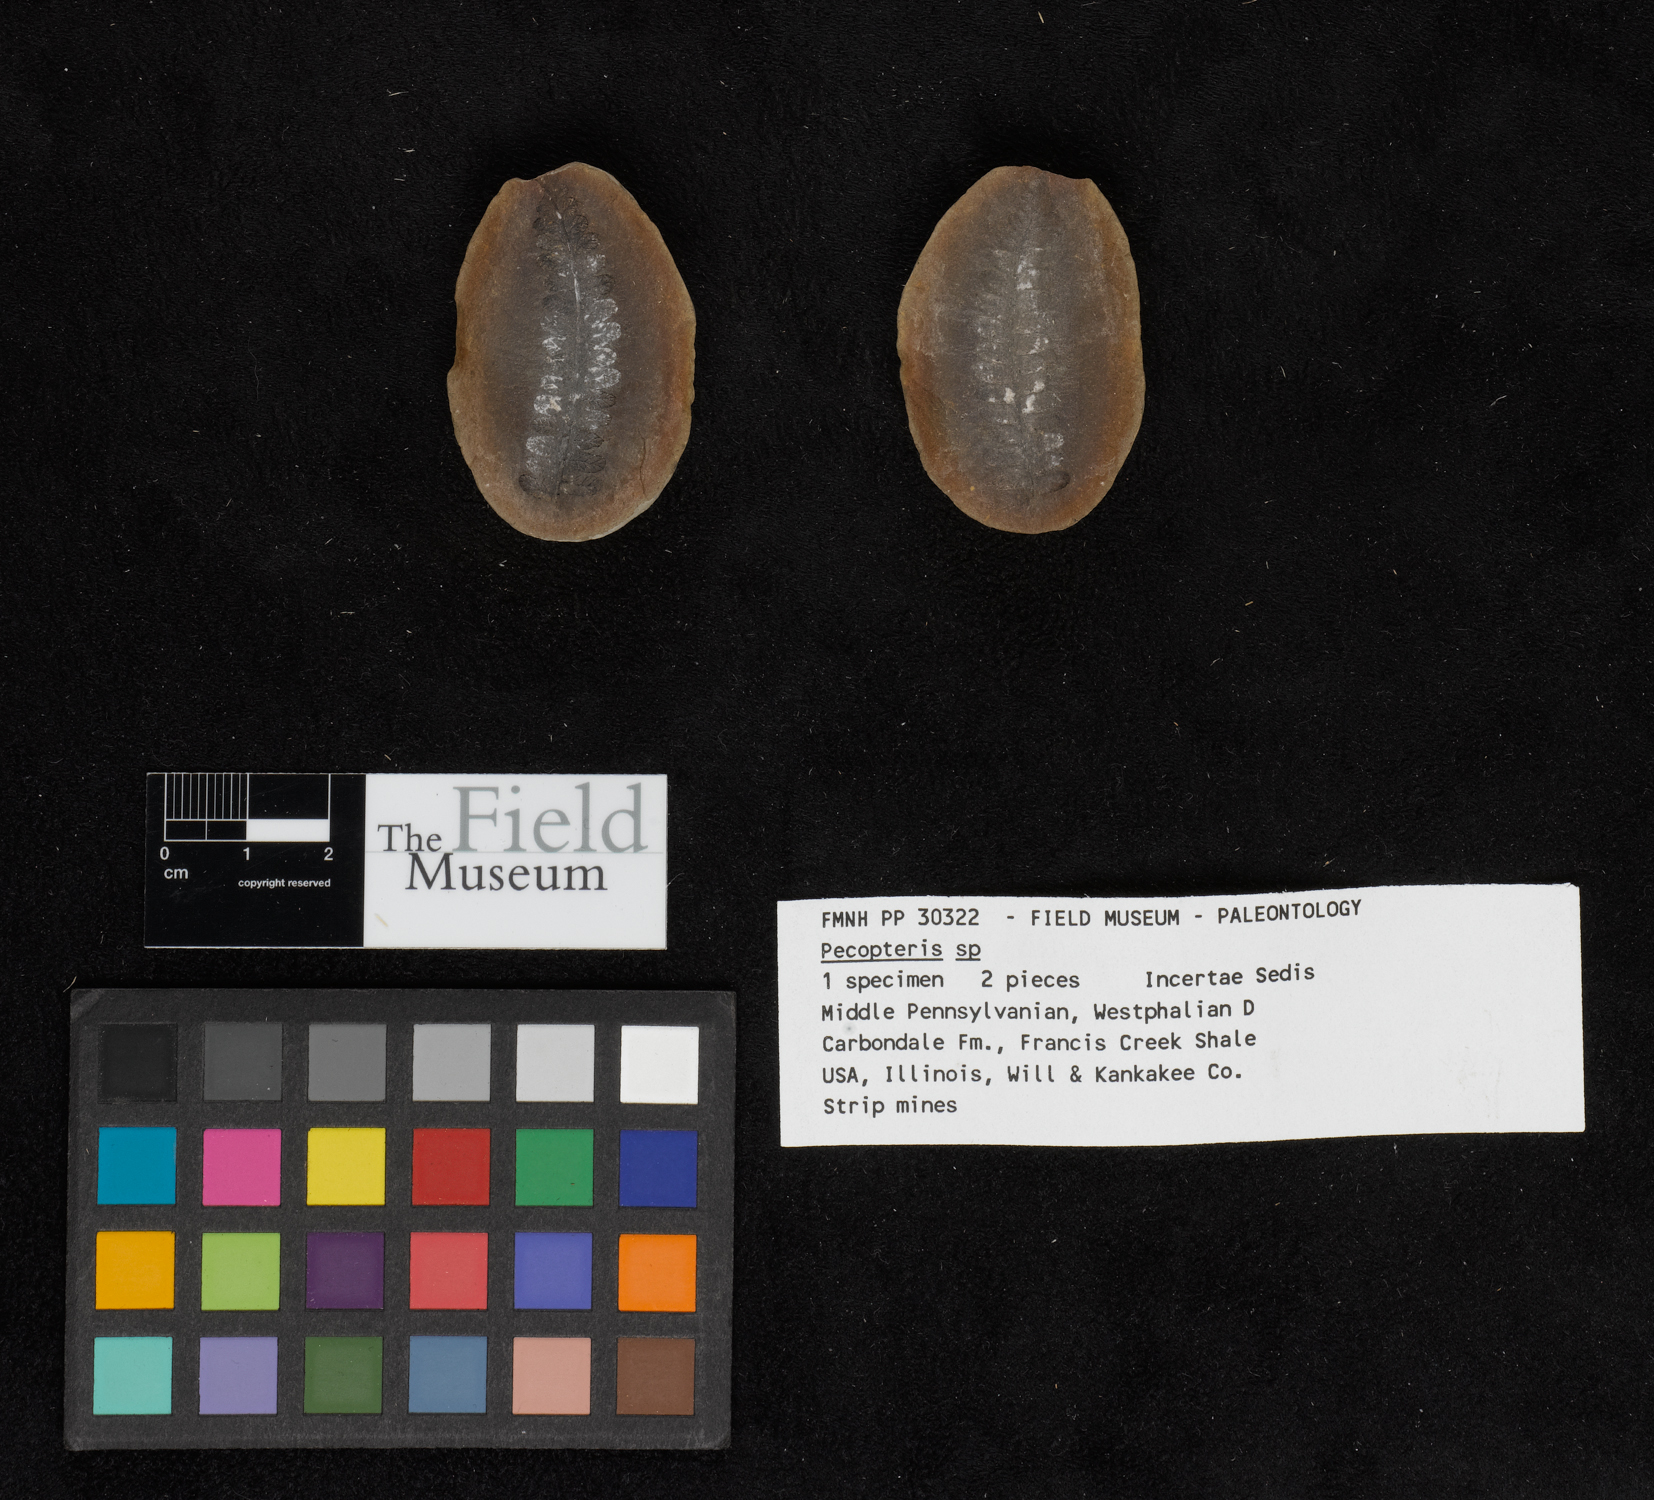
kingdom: Plantae
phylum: Tracheophyta
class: Polypodiopsida
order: Marattiales
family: Asterothecaceae
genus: Pecopteris
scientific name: Pecopteris
